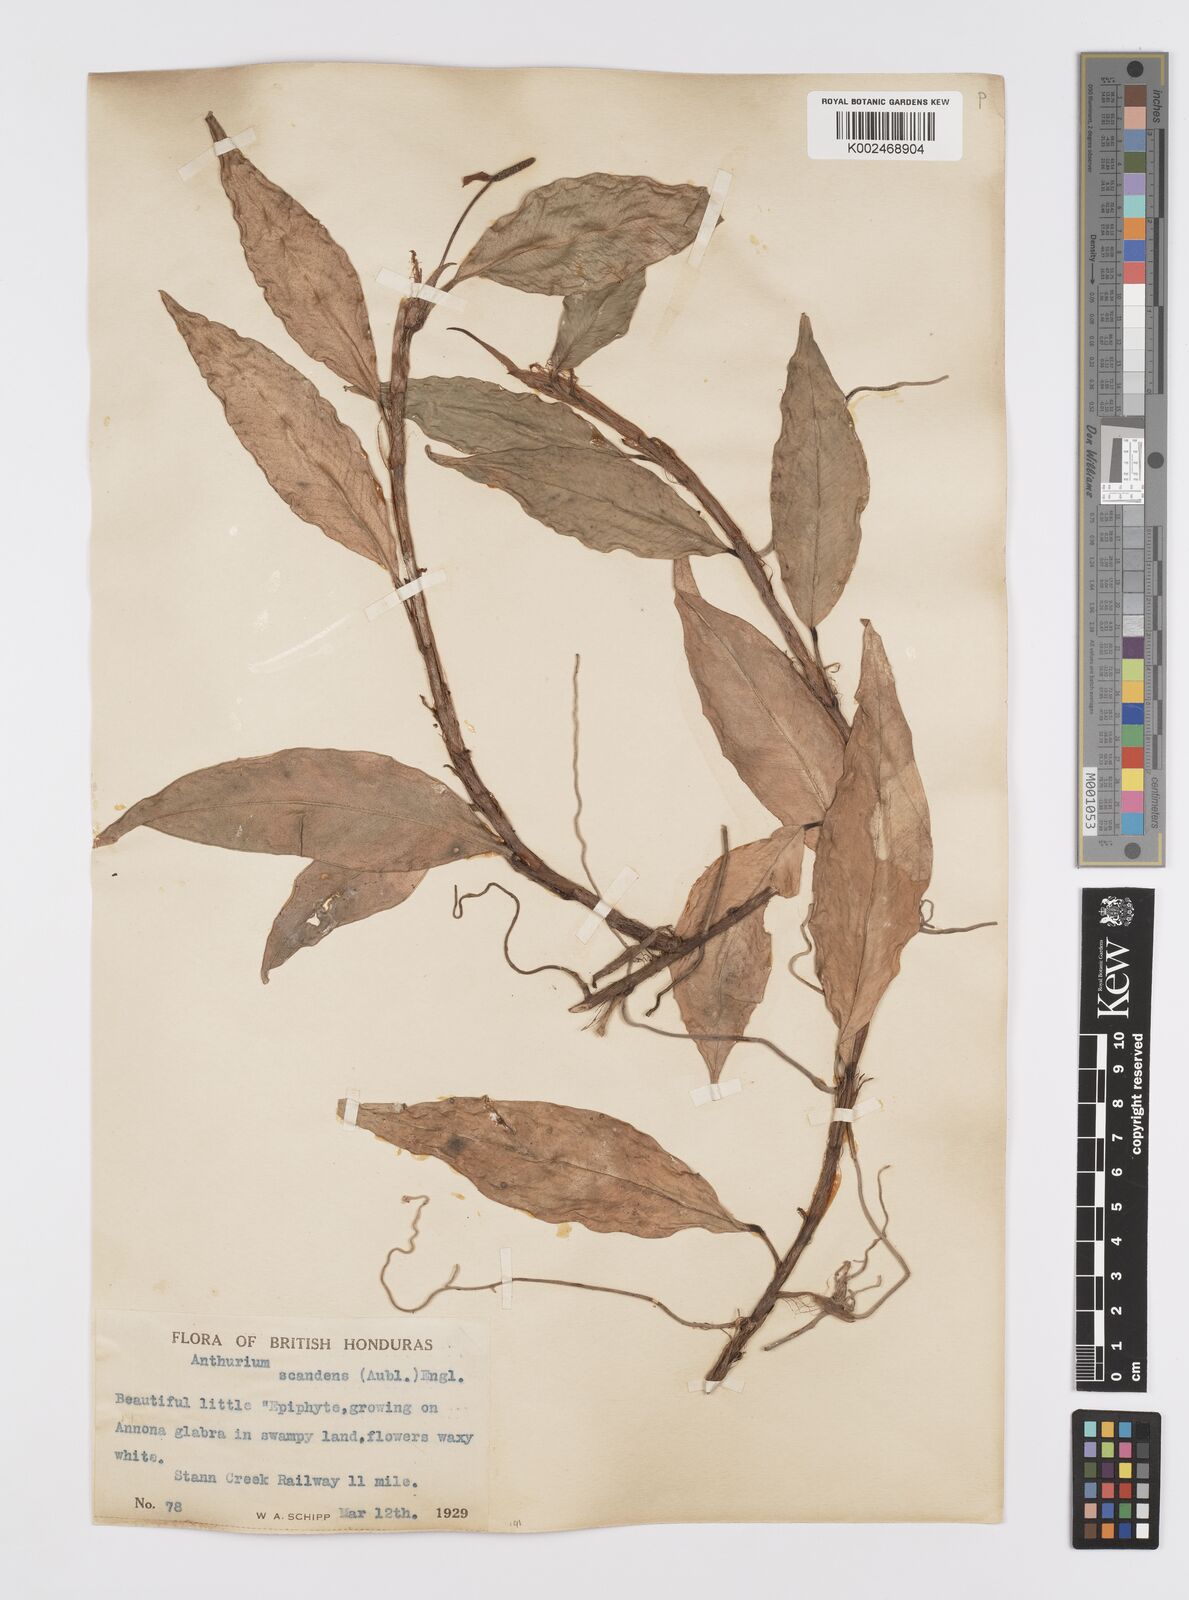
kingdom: Plantae
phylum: Tracheophyta
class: Liliopsida
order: Alismatales
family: Araceae
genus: Anthurium
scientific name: Anthurium scandens
